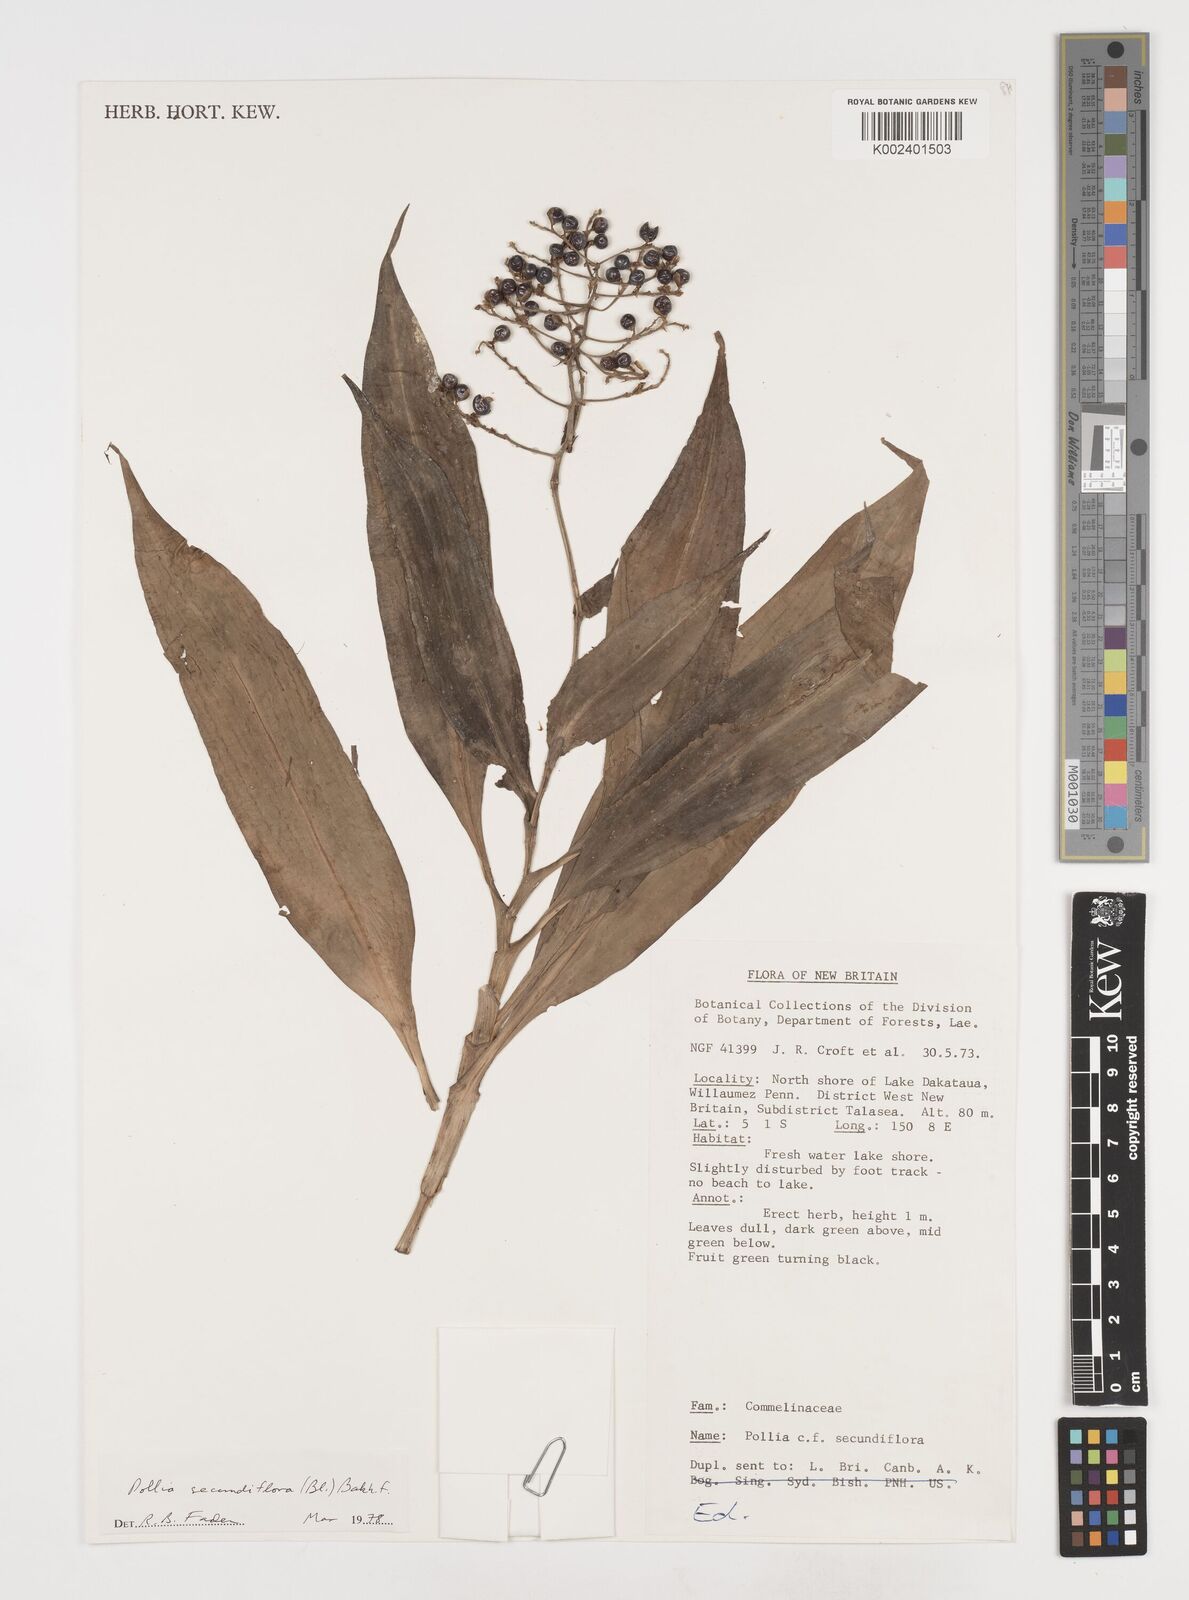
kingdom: Plantae
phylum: Tracheophyta
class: Liliopsida
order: Commelinales
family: Commelinaceae
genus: Pollia
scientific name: Pollia secundiflora
